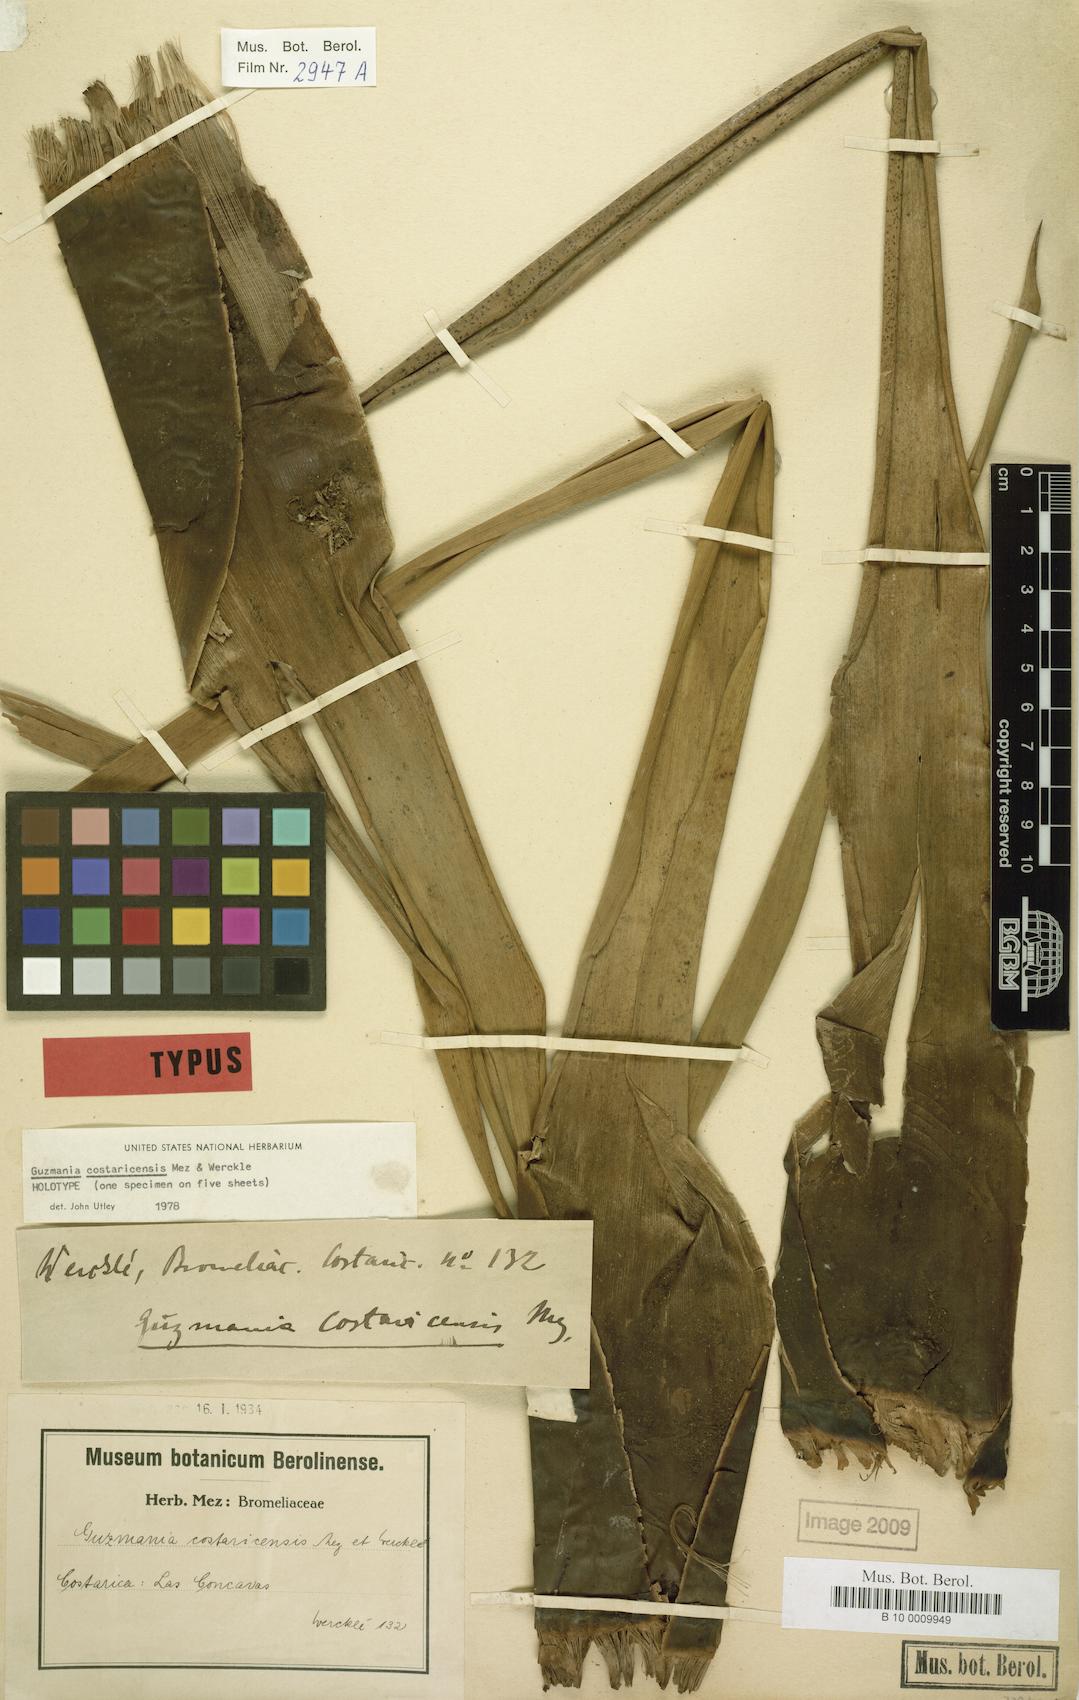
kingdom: Plantae
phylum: Tracheophyta
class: Liliopsida
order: Poales
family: Bromeliaceae
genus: Guzmania
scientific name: Guzmania condensata
